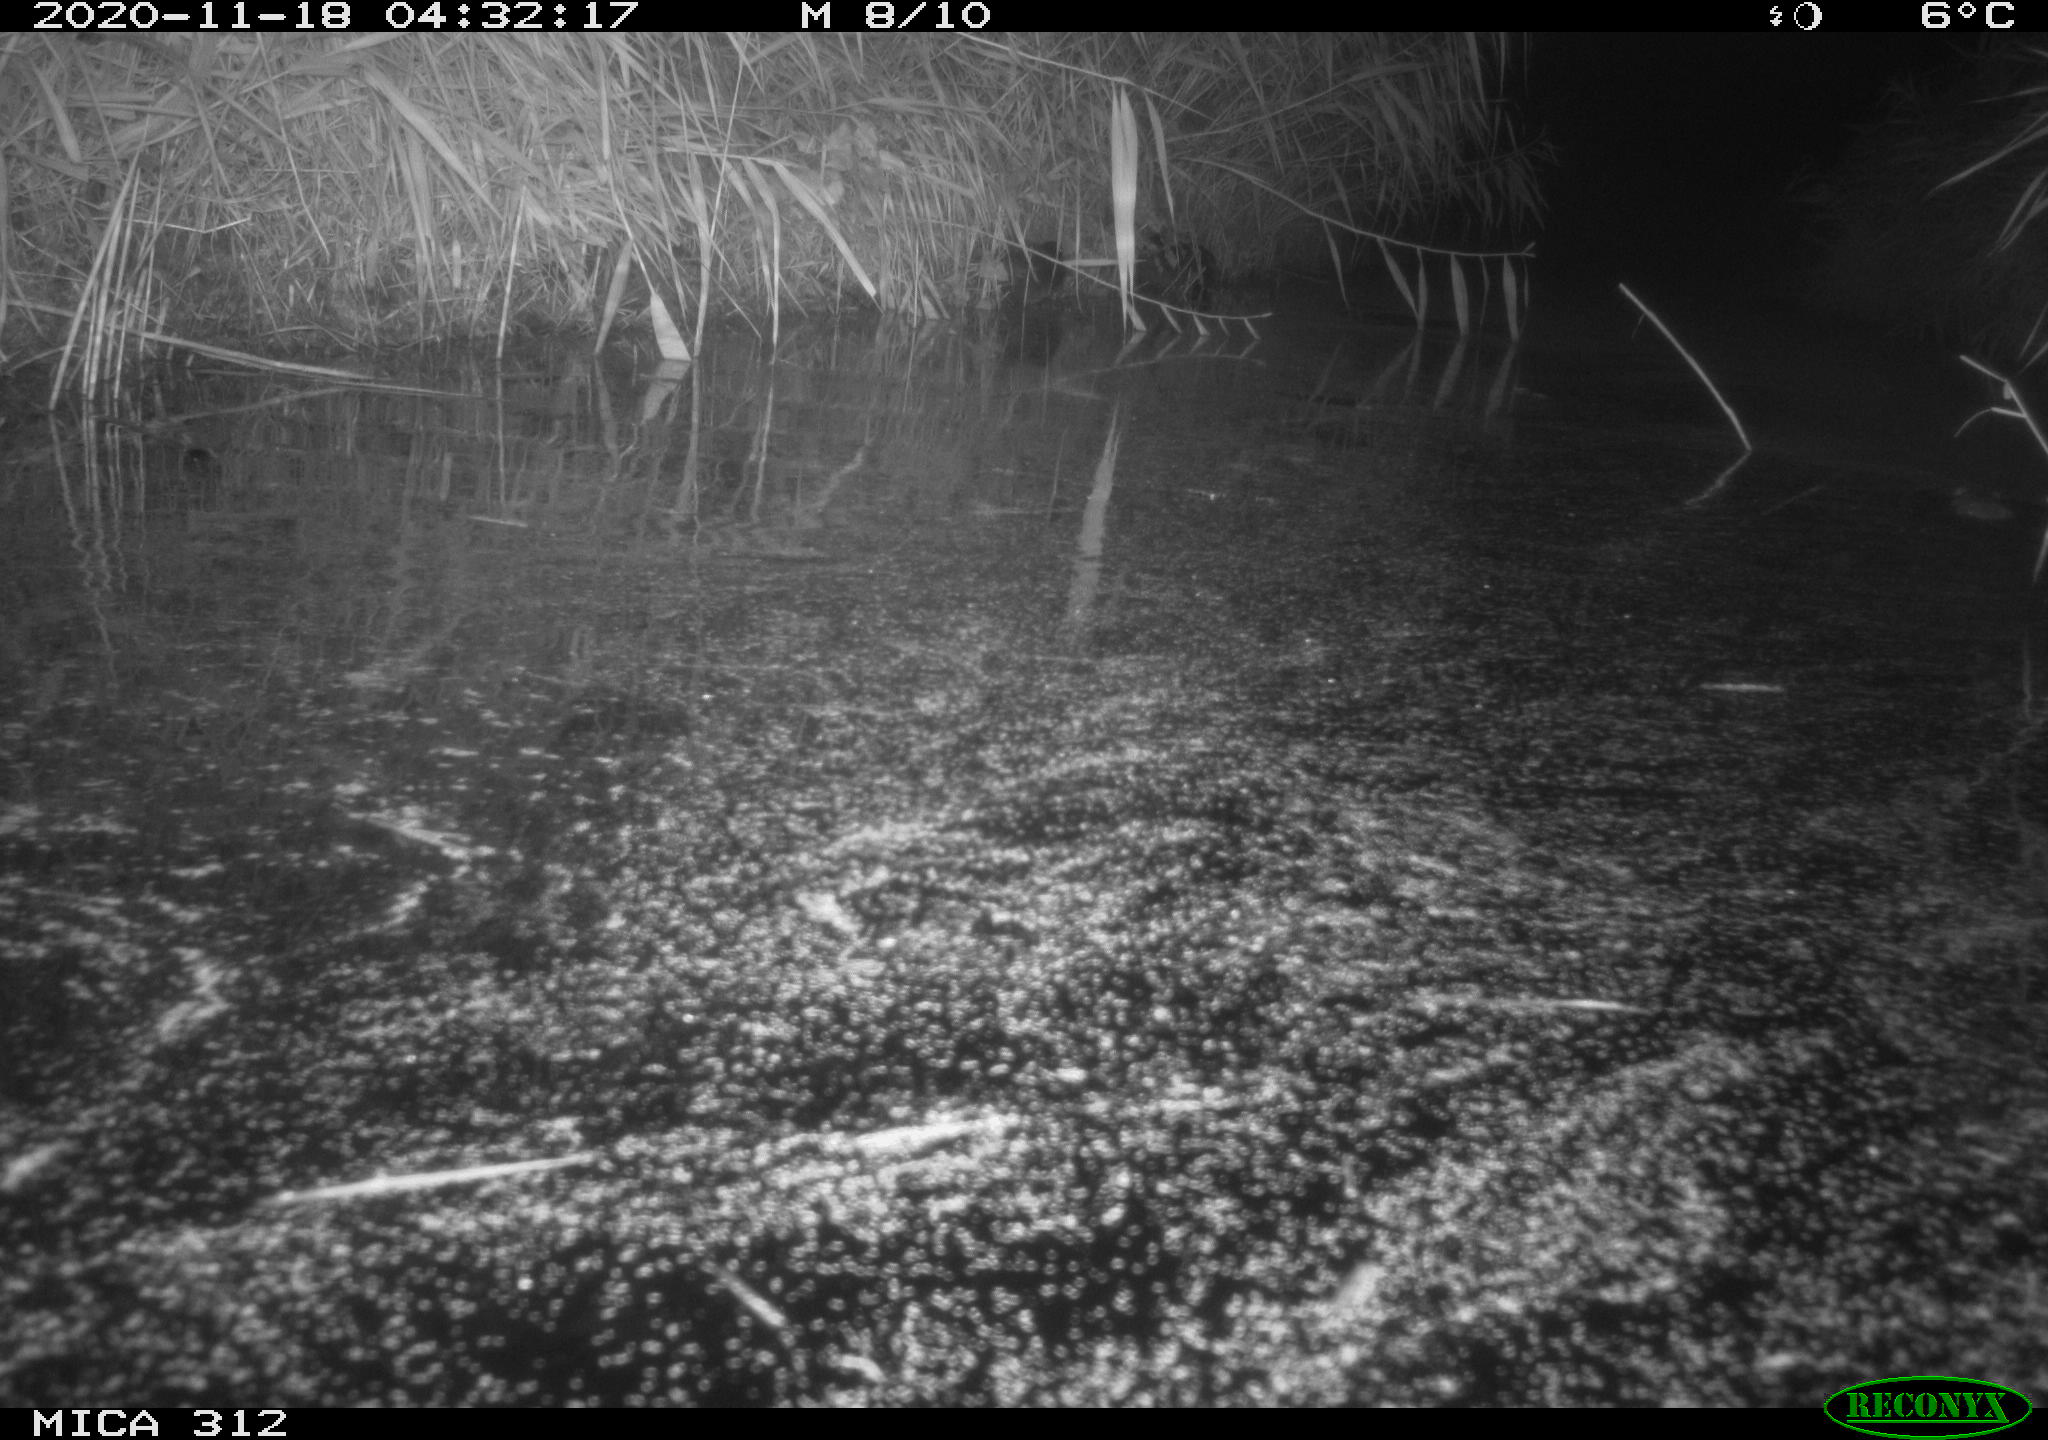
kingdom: Animalia
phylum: Chordata
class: Mammalia
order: Rodentia
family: Muridae
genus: Rattus
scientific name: Rattus norvegicus
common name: Brown rat
